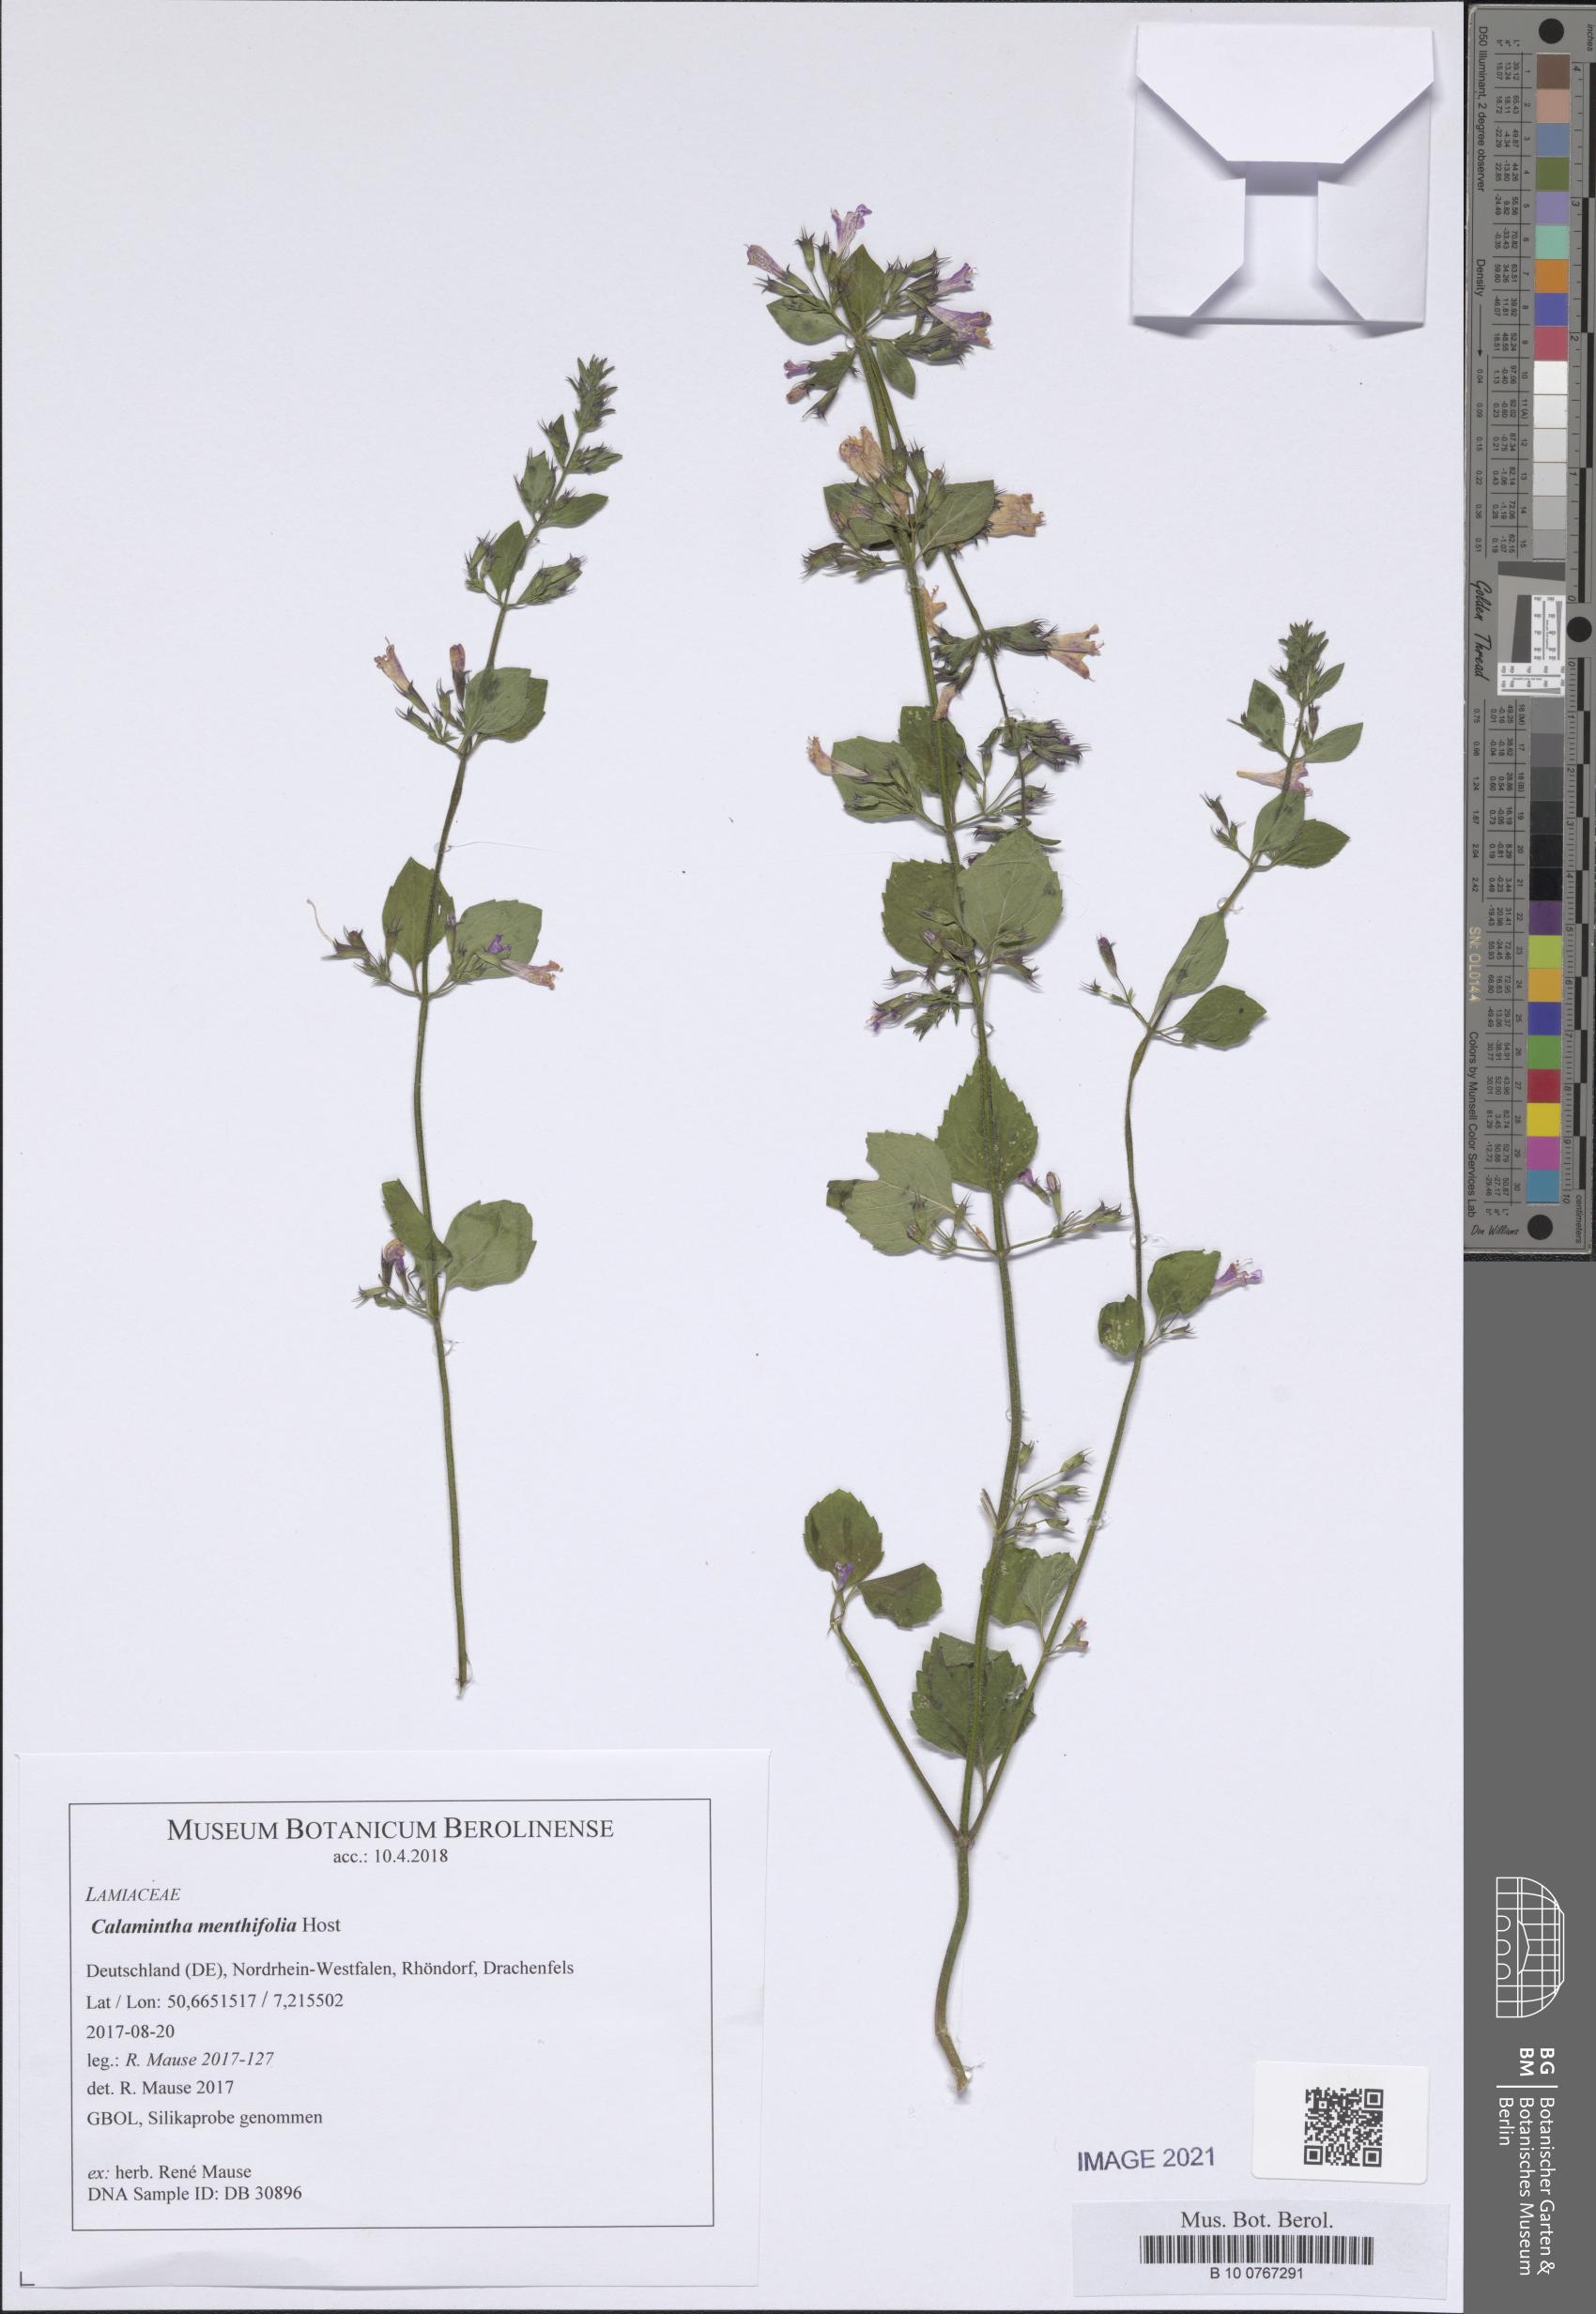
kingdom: Plantae
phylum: Tracheophyta
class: Magnoliopsida
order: Lamiales
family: Lamiaceae
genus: Clinopodium
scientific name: Clinopodium menthifolium
